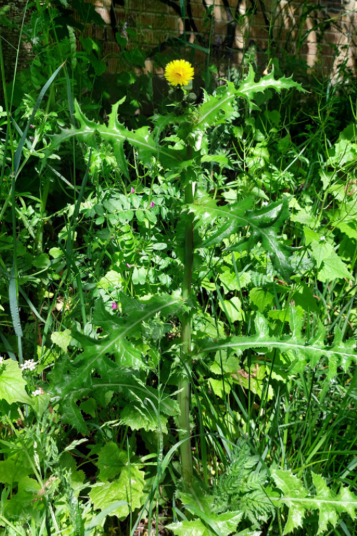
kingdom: Plantae
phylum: Tracheophyta
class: Magnoliopsida
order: Asterales
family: Asteraceae
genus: Sonchus
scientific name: Sonchus asper
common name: Ru svinemælk
